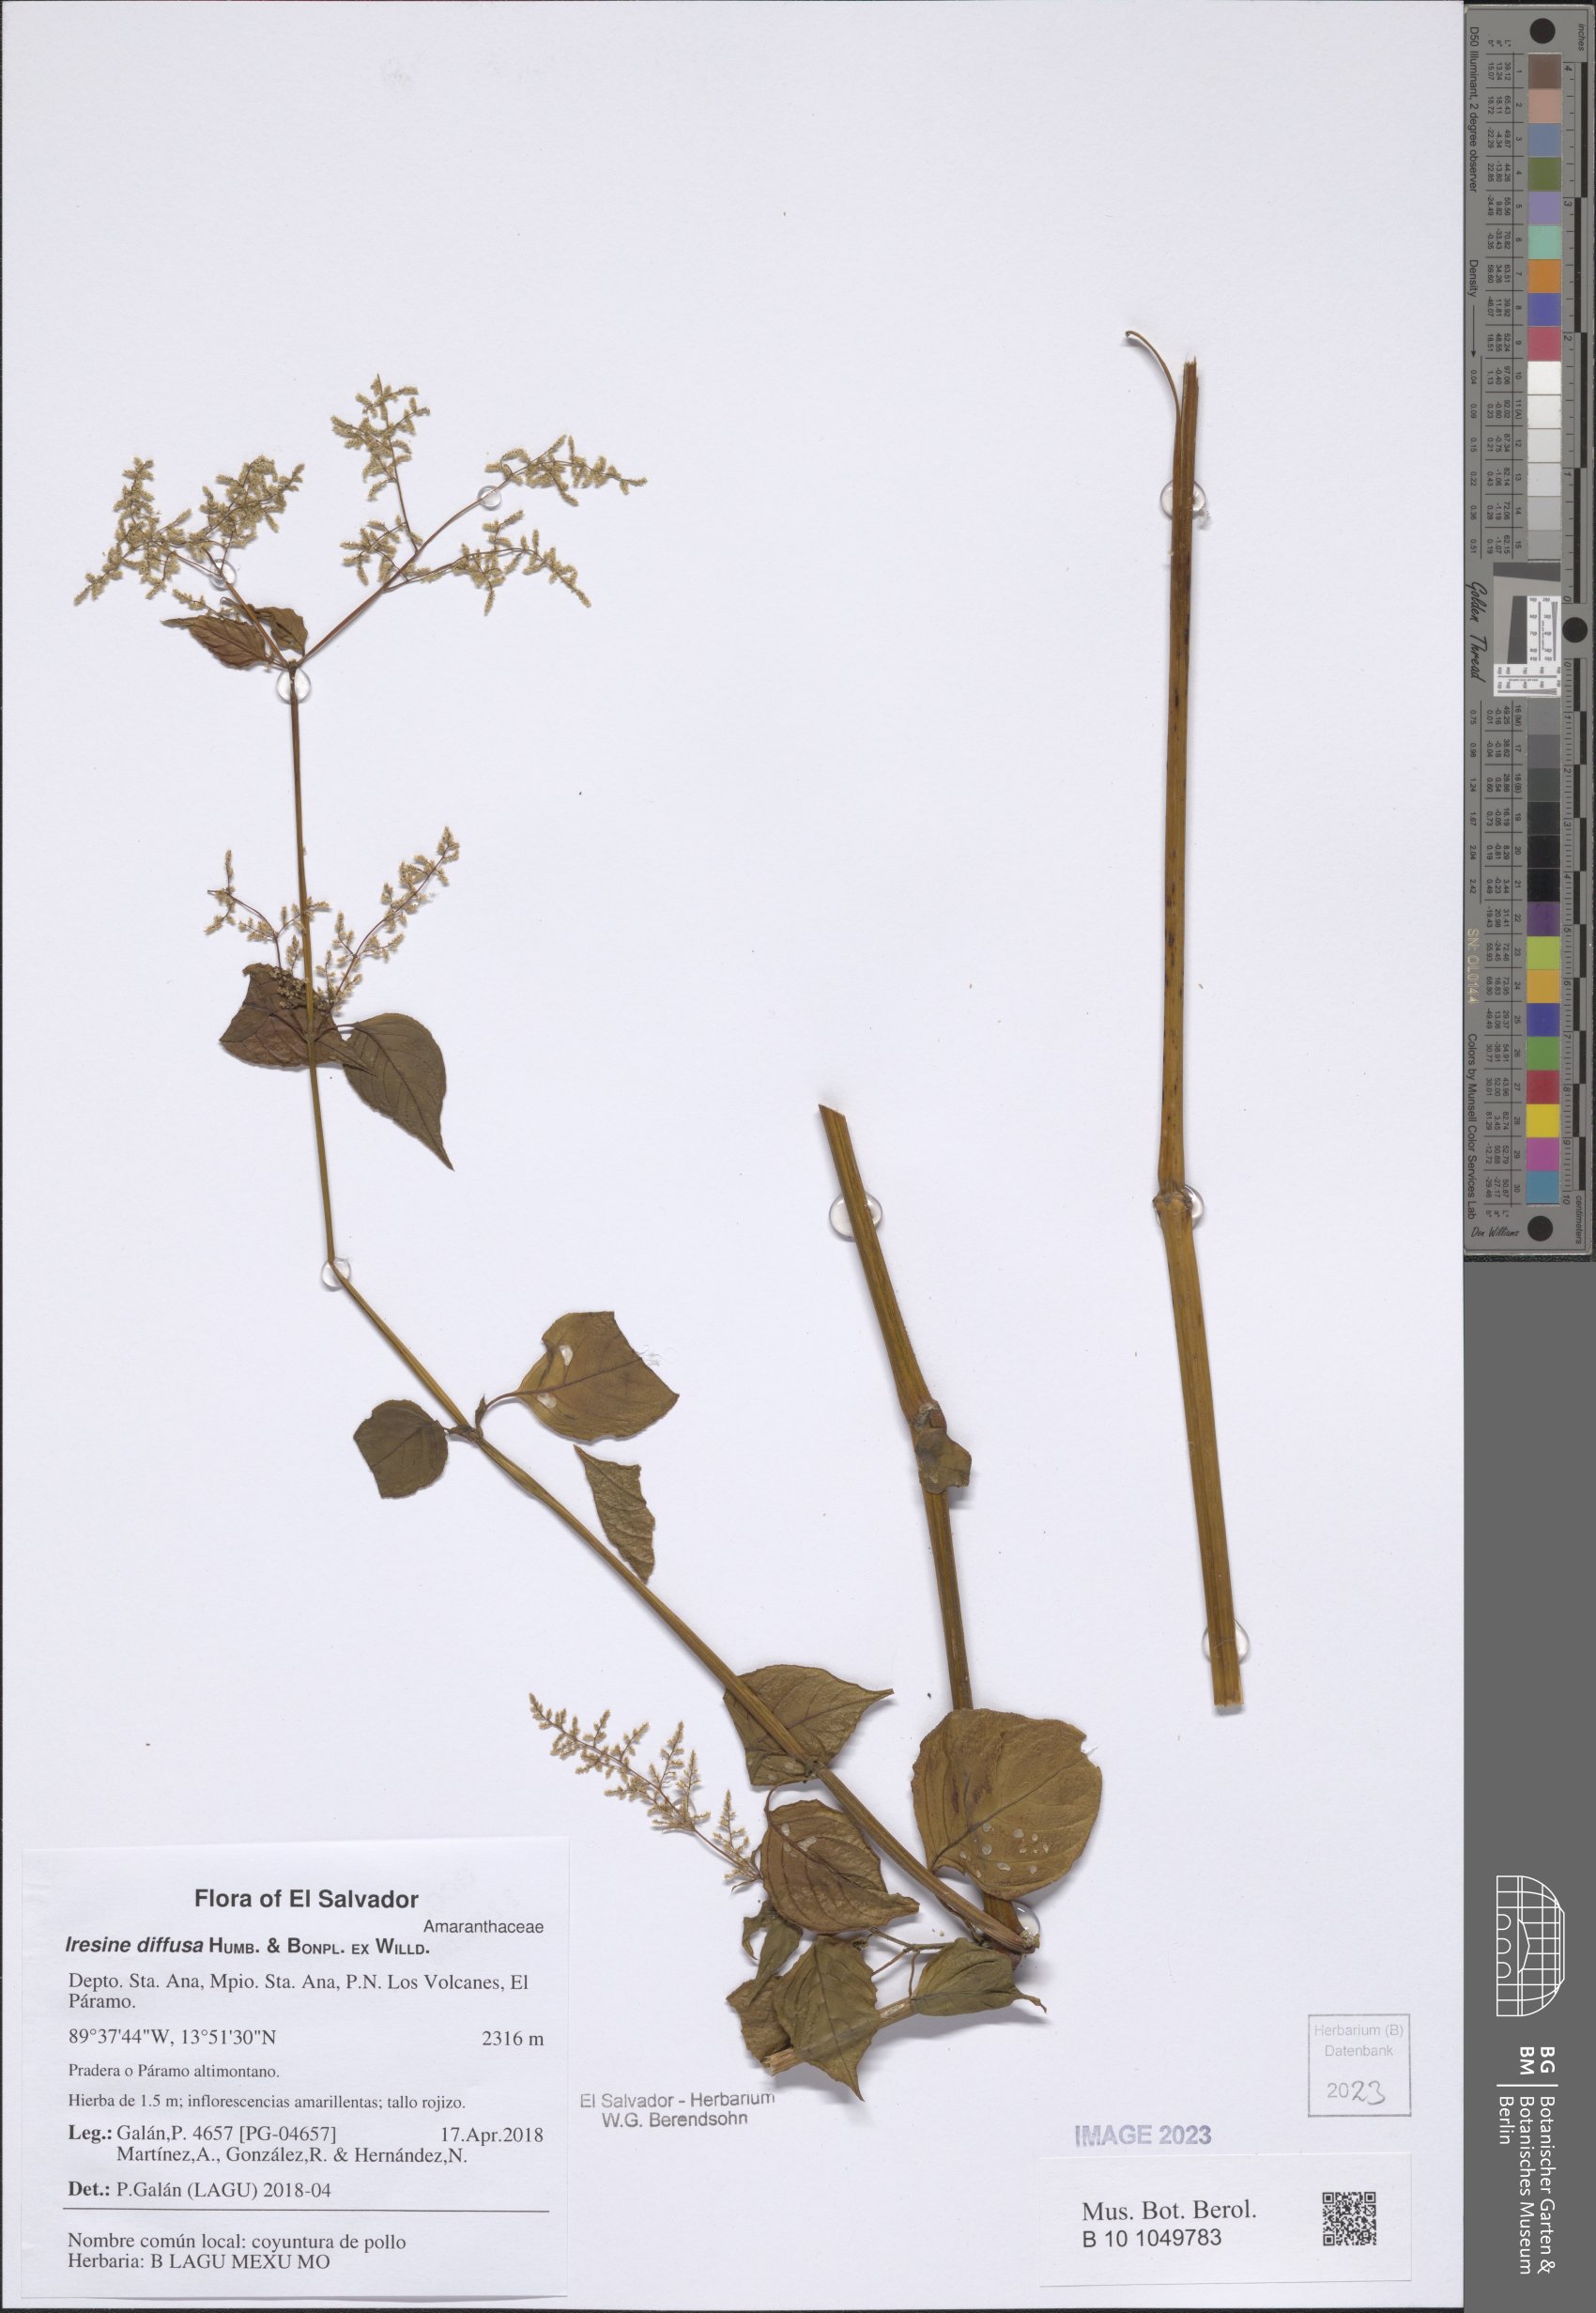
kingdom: Plantae
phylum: Tracheophyta
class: Magnoliopsida
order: Caryophyllales
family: Amaranthaceae
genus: Iresine
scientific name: Iresine diffusa
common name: Juba's-bush
